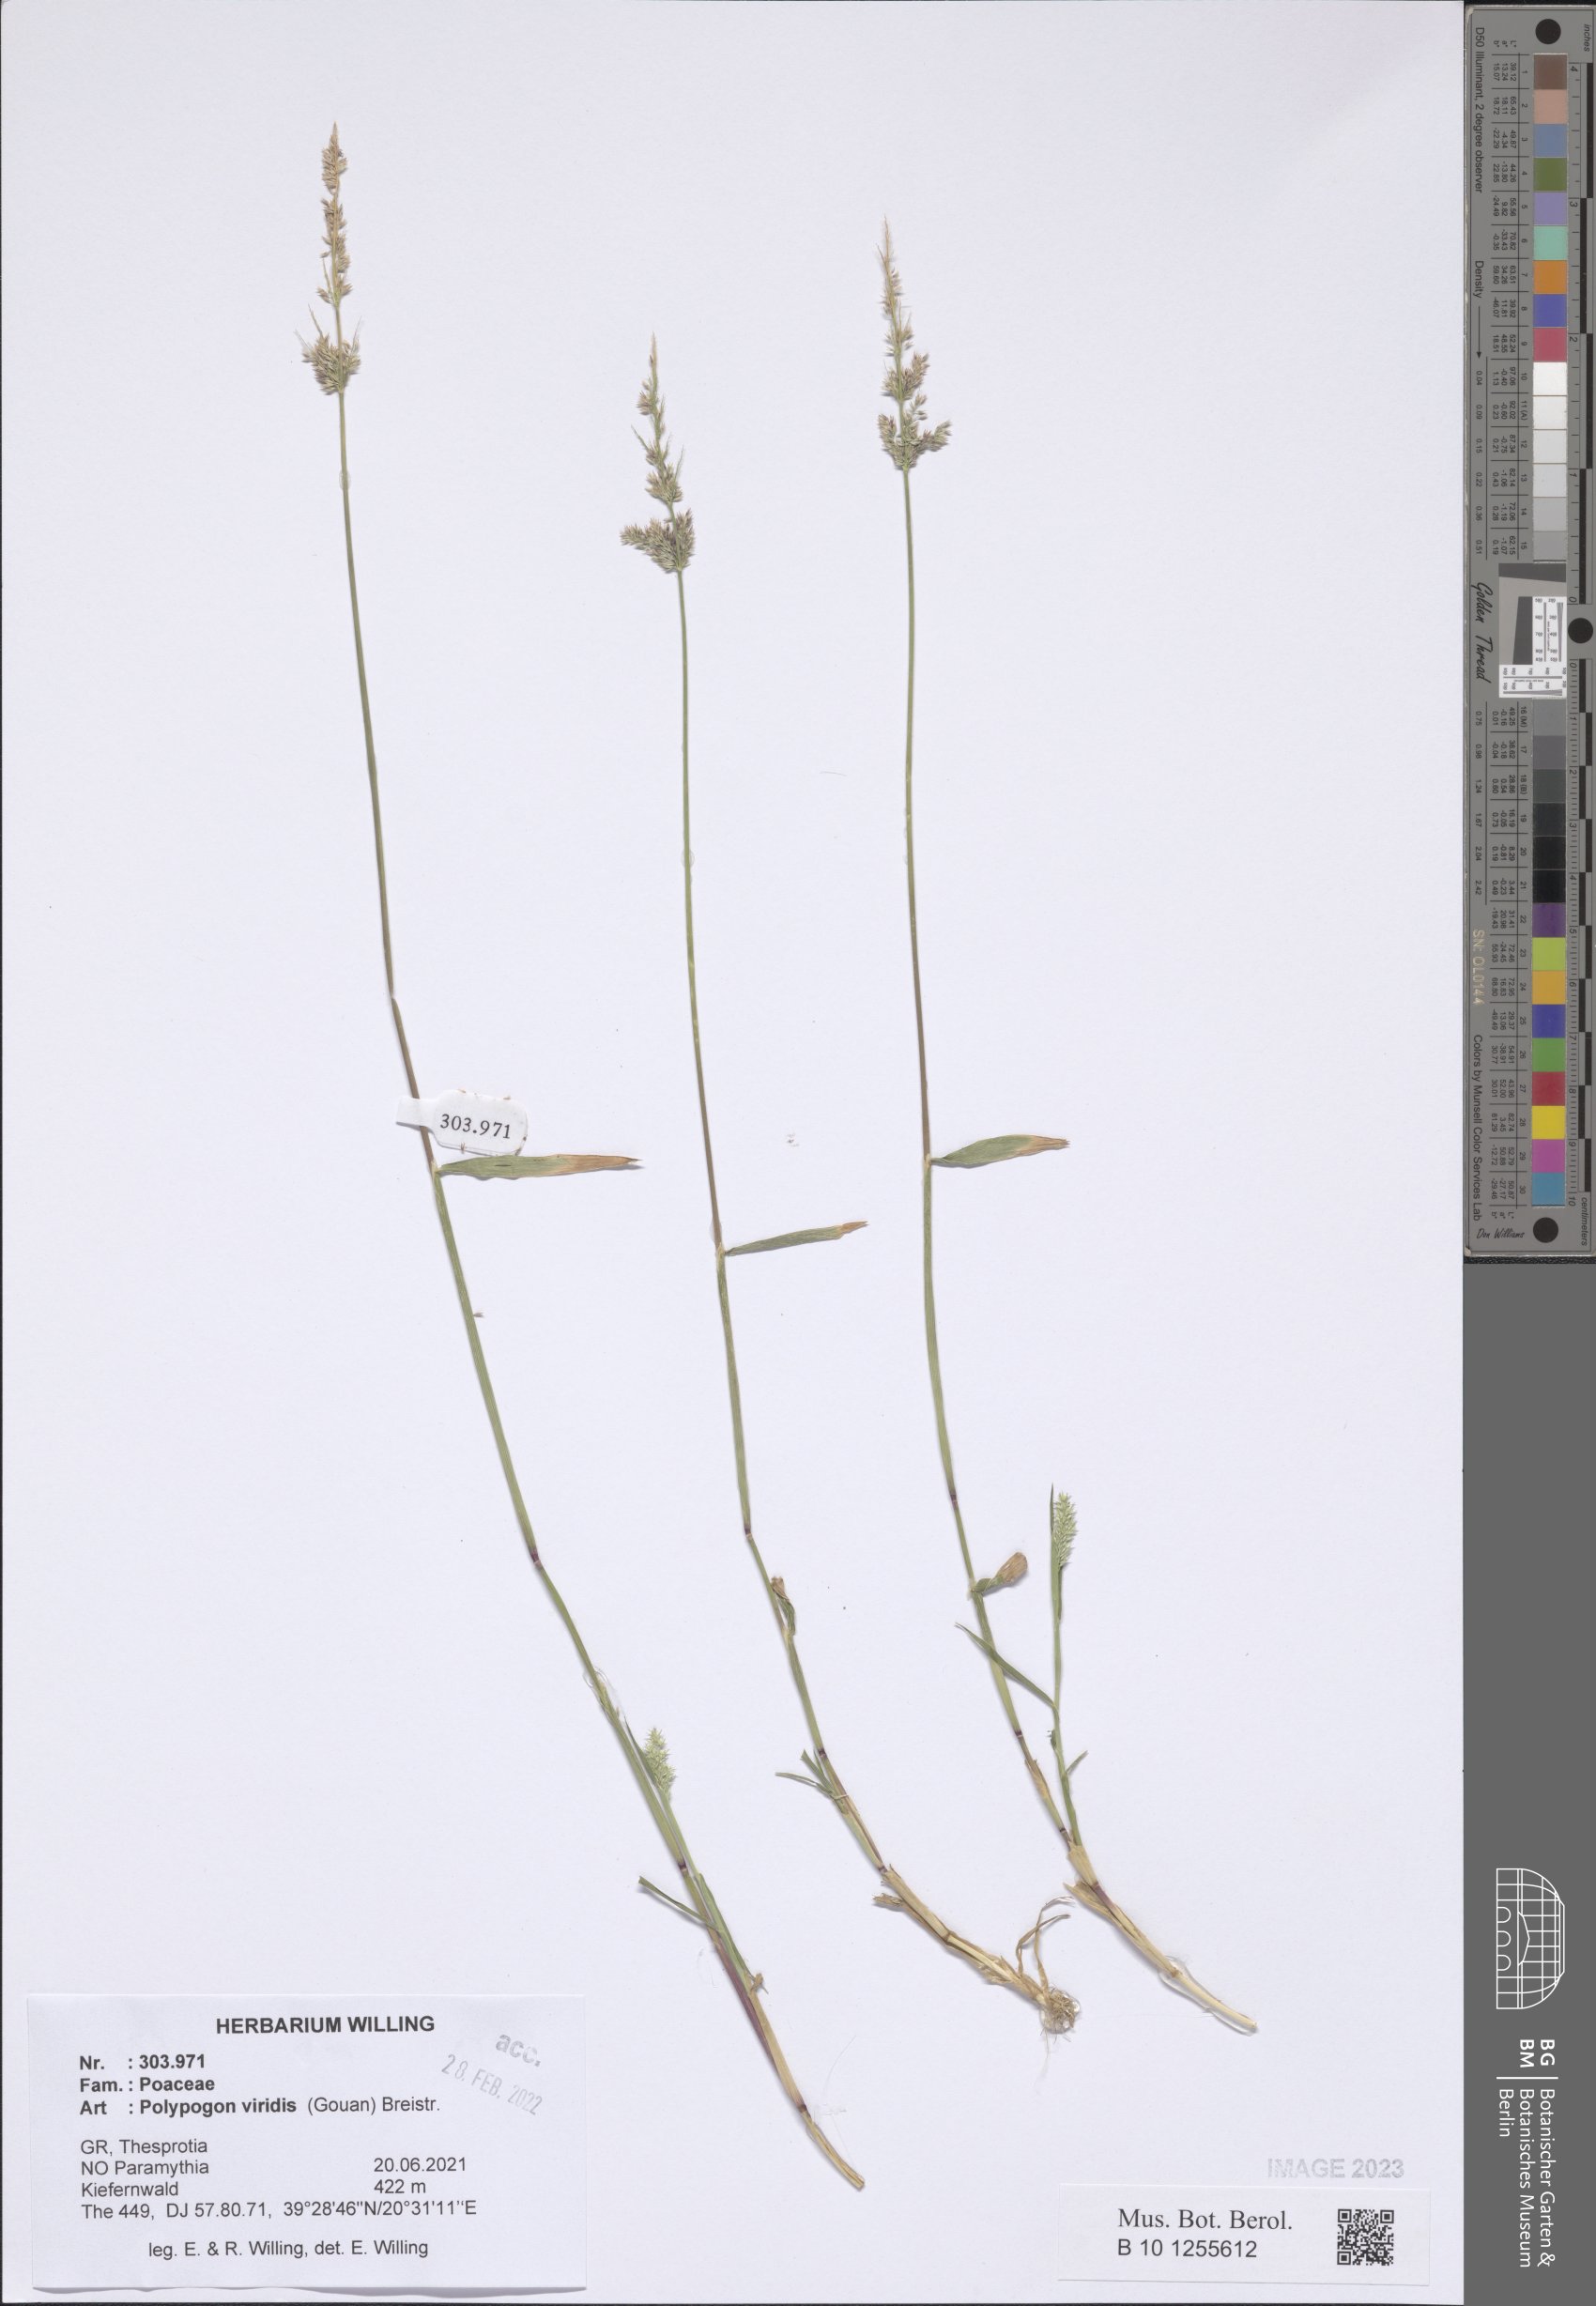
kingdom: Plantae
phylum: Tracheophyta
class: Liliopsida
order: Poales
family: Poaceae
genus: Polypogon
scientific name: Polypogon viridis
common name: Water bent
